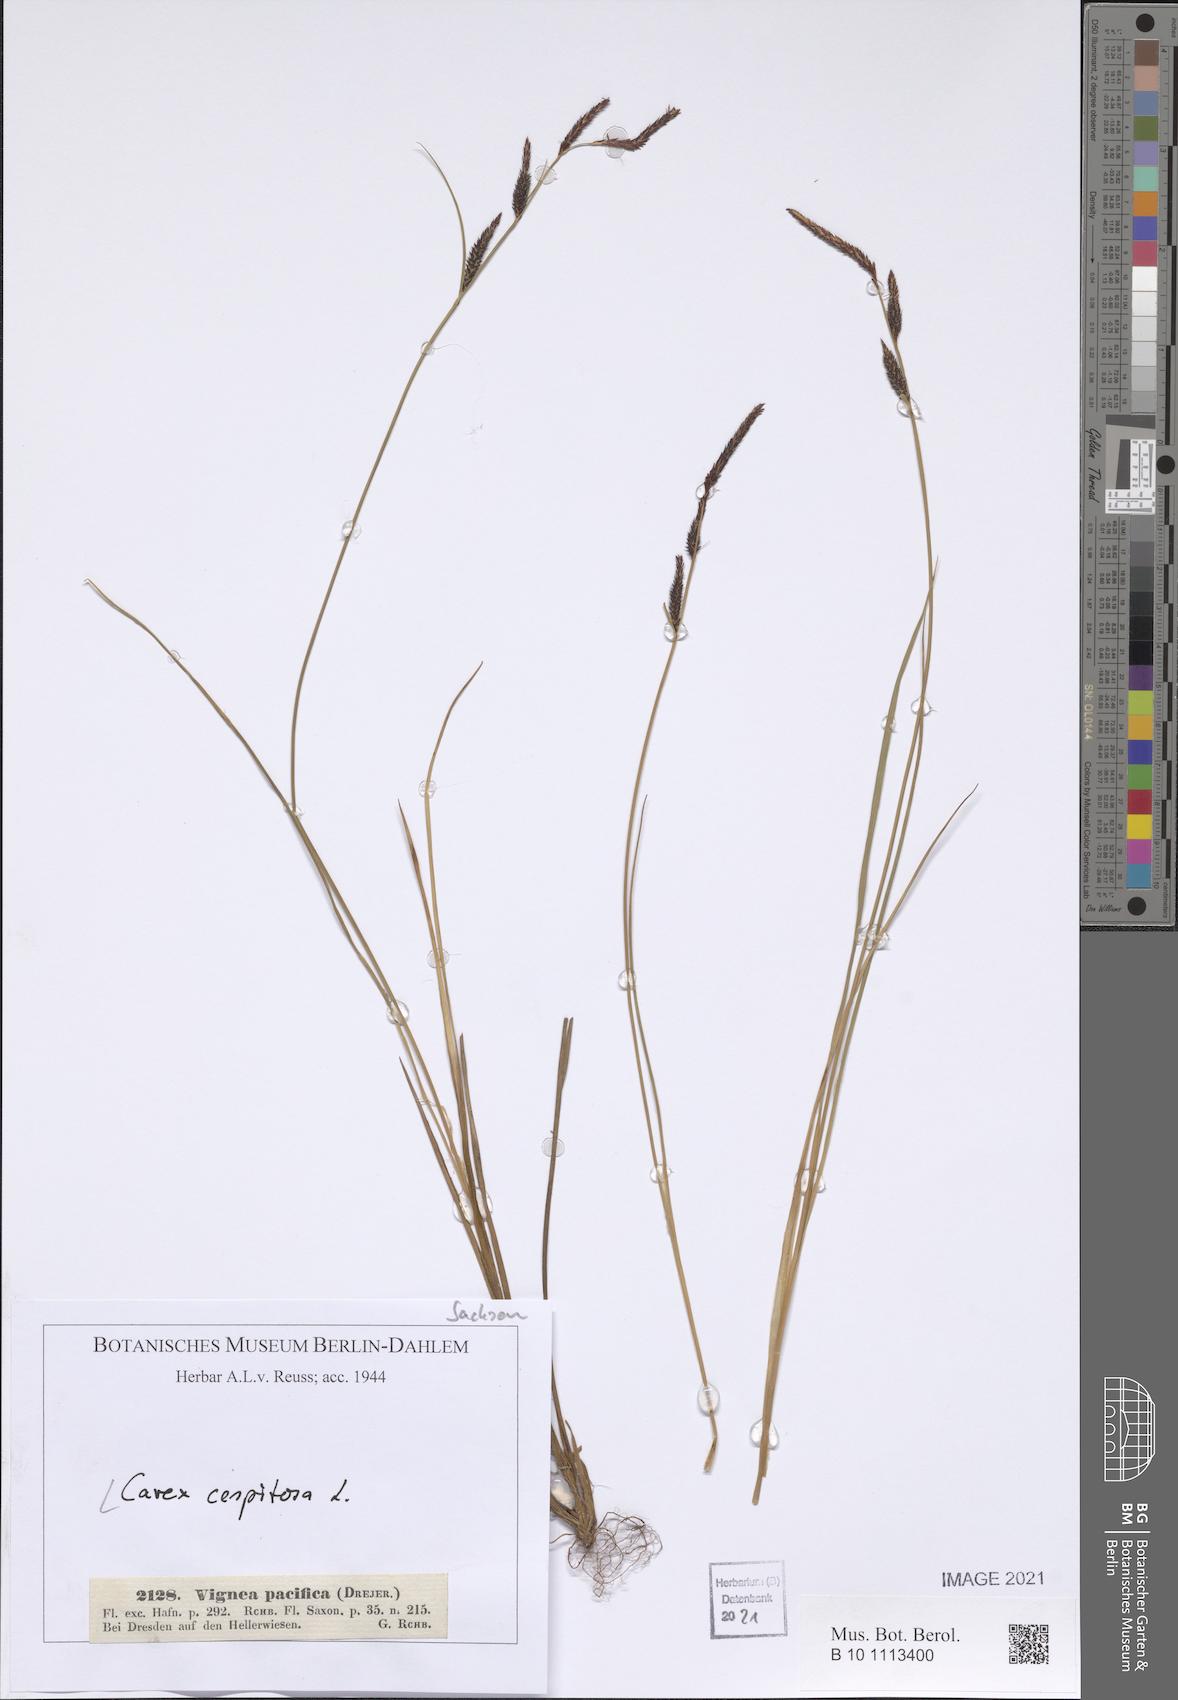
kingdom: Plantae
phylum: Tracheophyta
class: Liliopsida
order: Poales
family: Cyperaceae
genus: Carex
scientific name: Carex cespitosa
